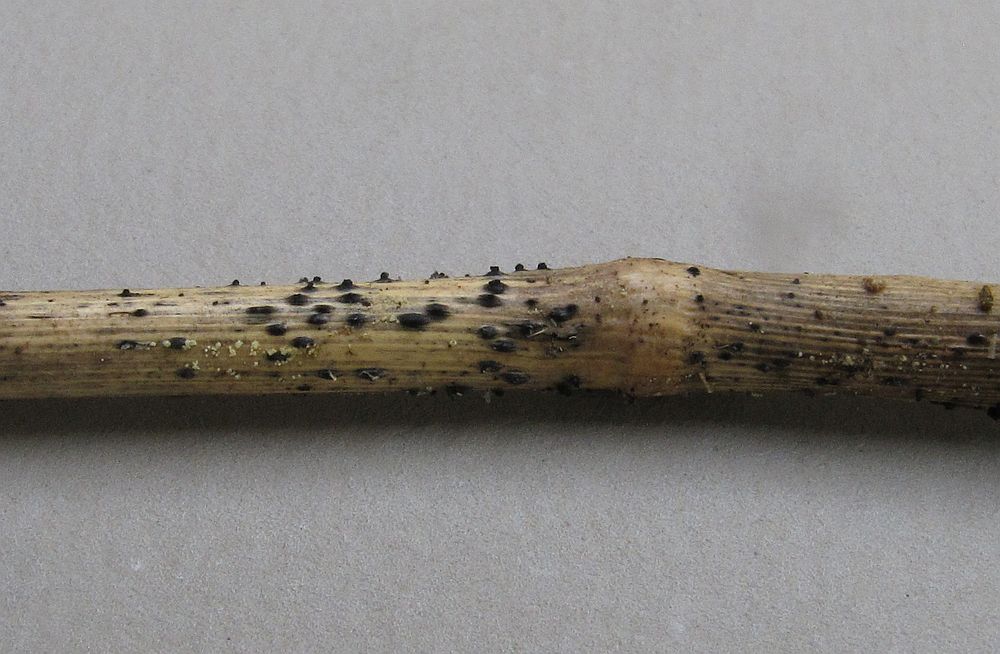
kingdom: Fungi
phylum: Ascomycota
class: Dothideomycetes
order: Pleosporales
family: Lophiostomataceae
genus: Lophiostoma
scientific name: Lophiostoma semiliberum
